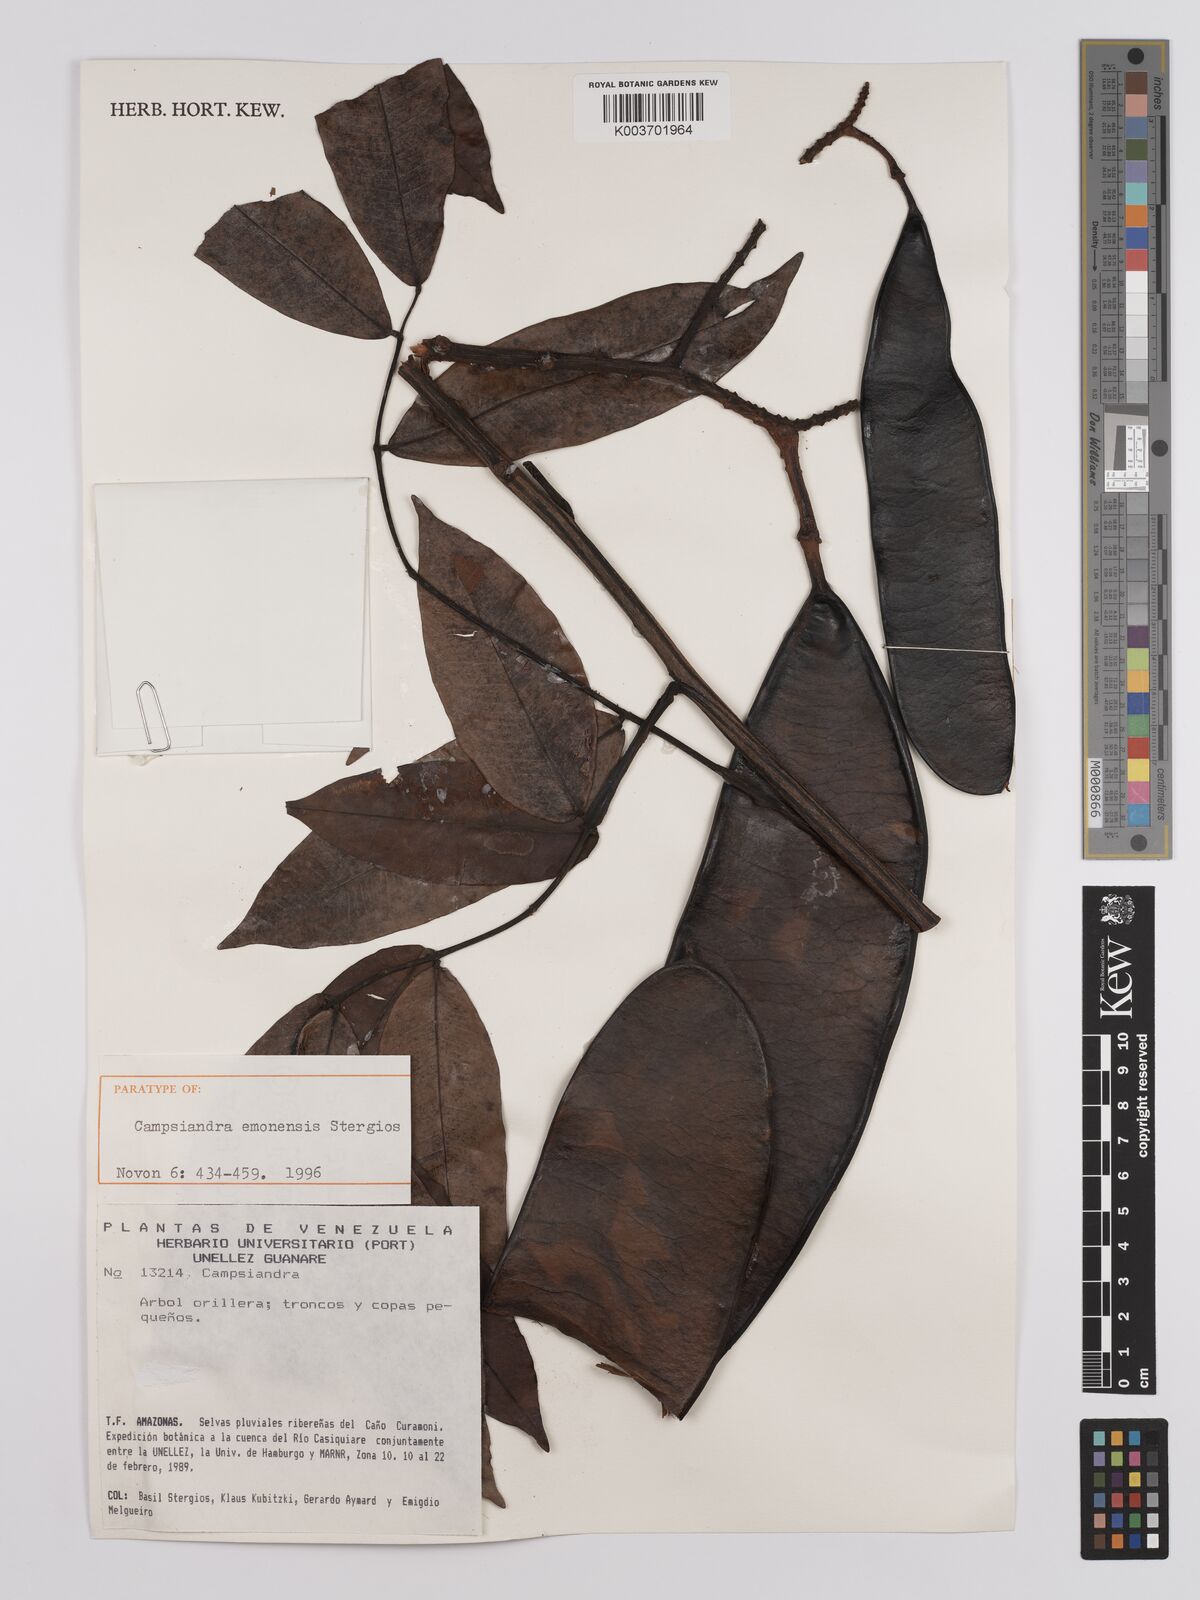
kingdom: Plantae
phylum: Tracheophyta
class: Magnoliopsida
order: Fabales
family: Fabaceae
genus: Campsiandra
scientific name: Campsiandra emonensis
